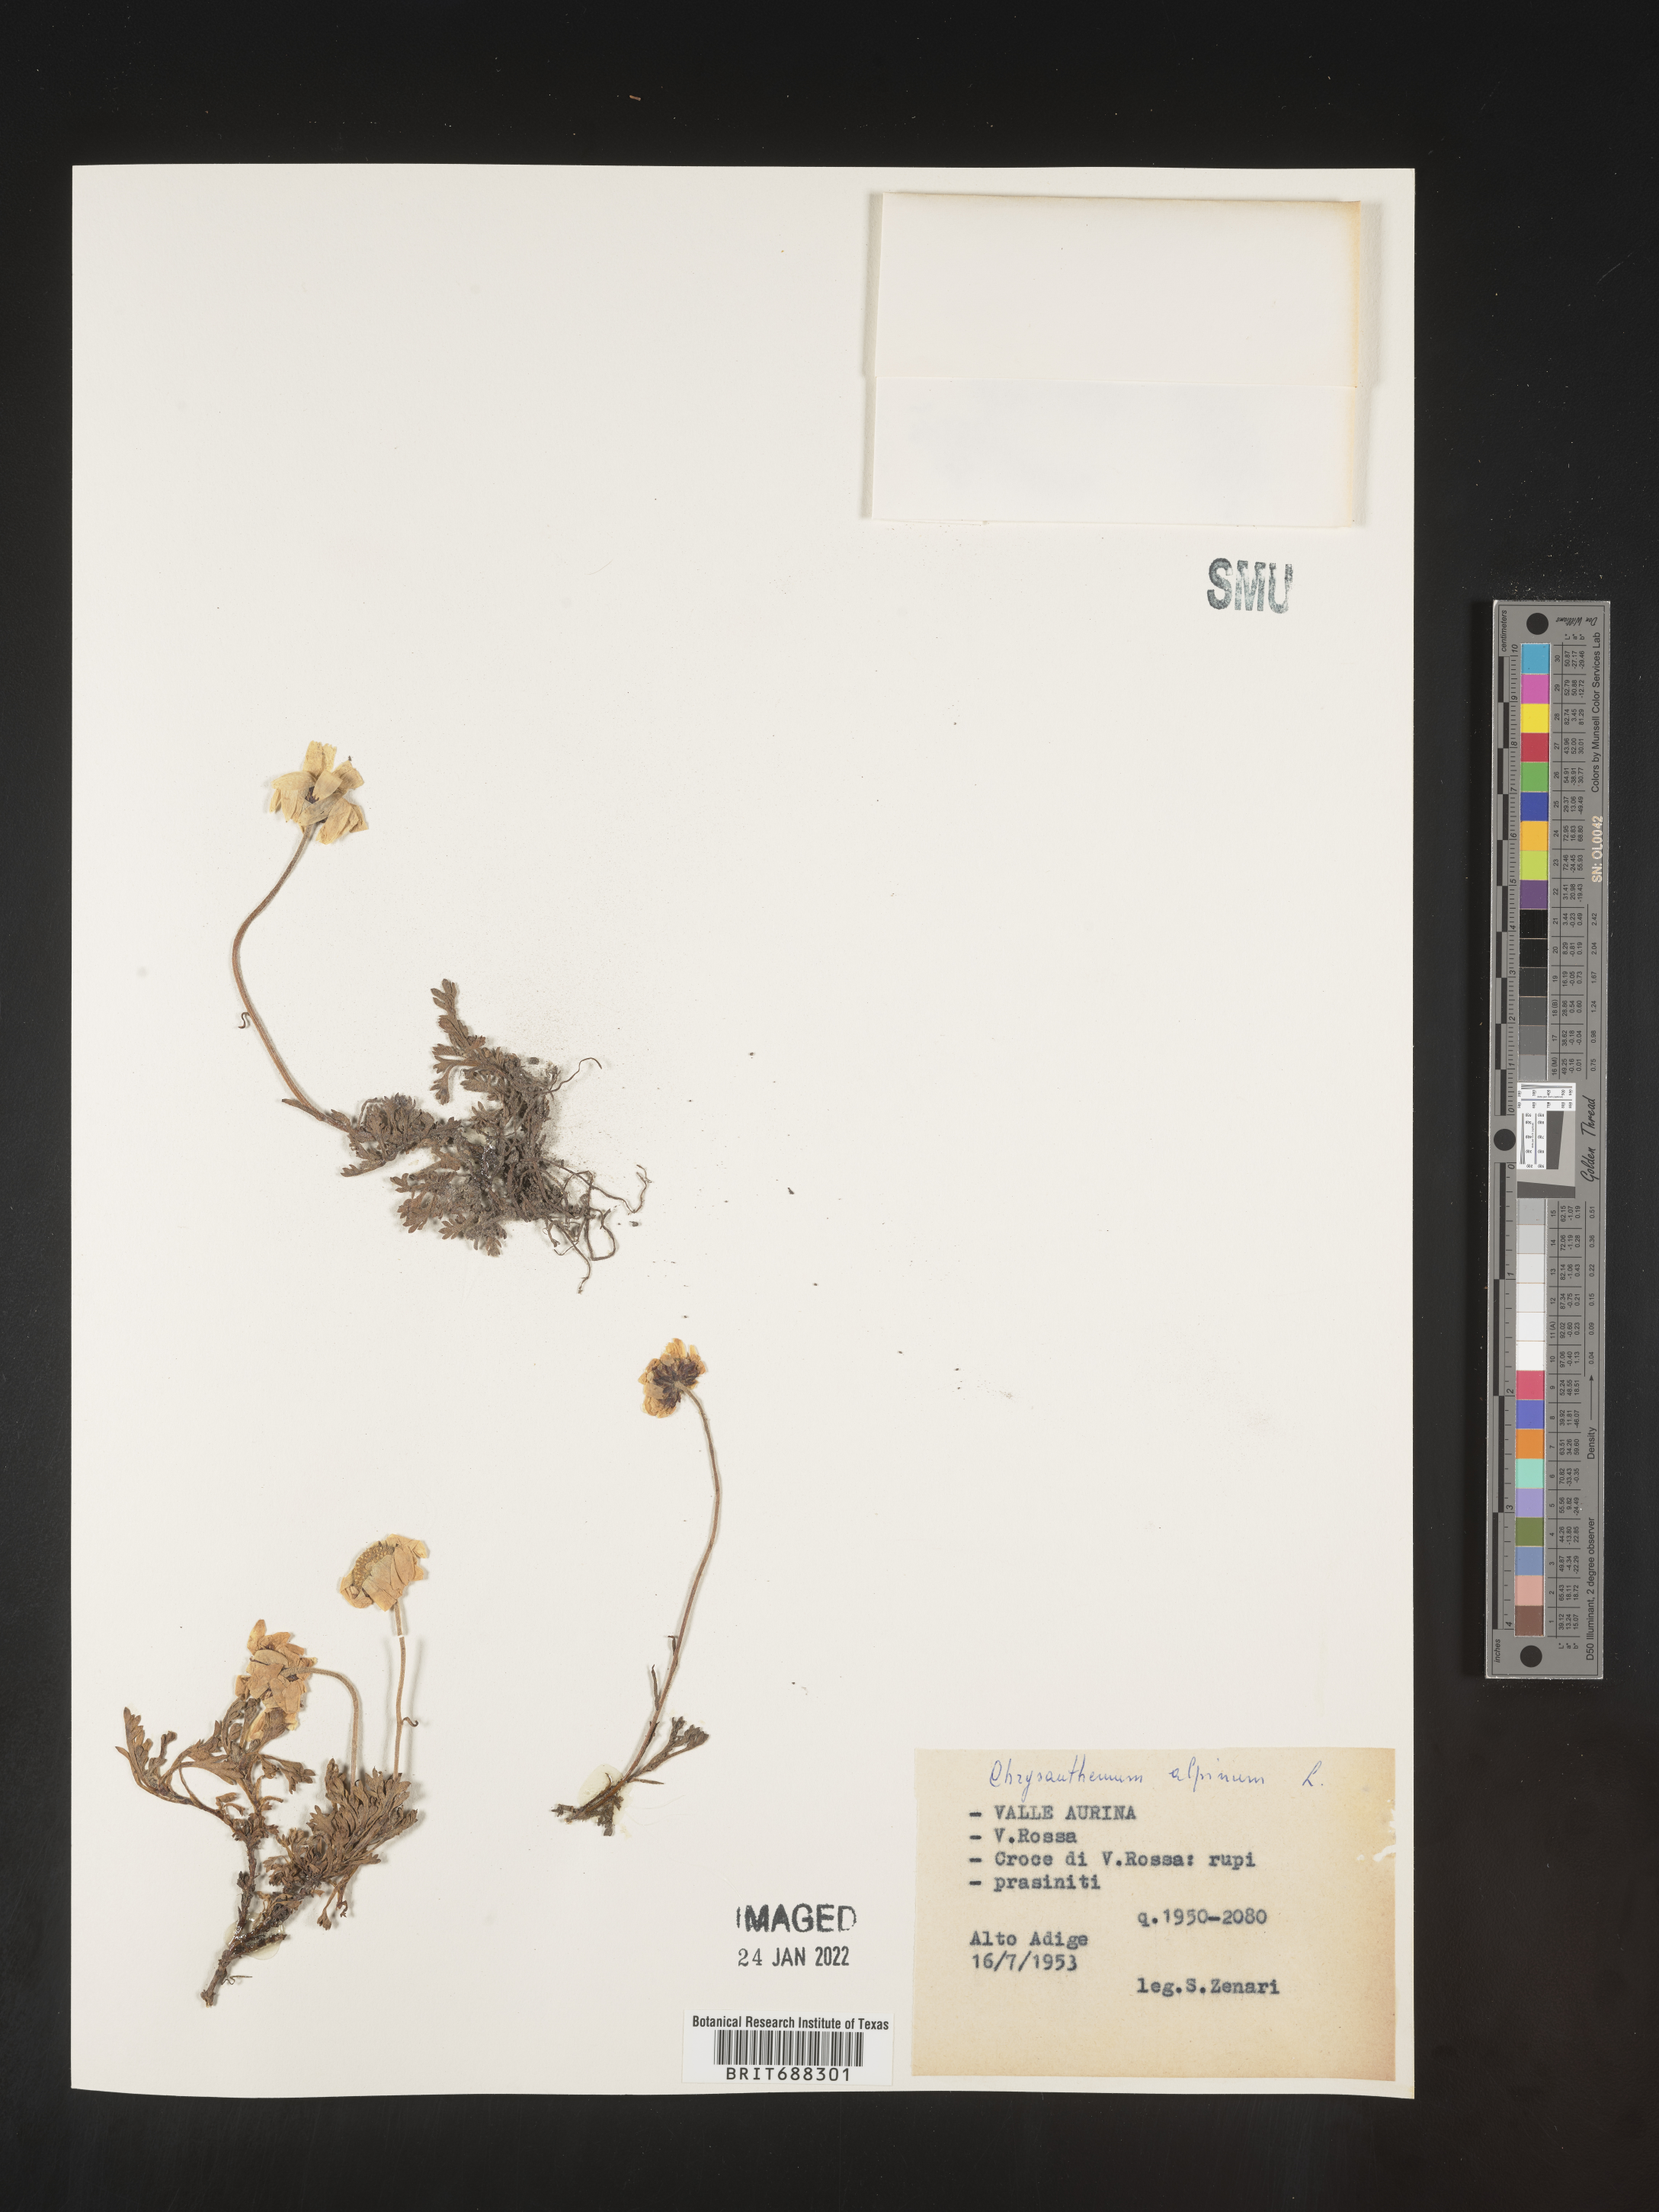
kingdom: Plantae
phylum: Tracheophyta
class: Magnoliopsida
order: Asterales
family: Asteraceae
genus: Chrysanthemum
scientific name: Chrysanthemum
